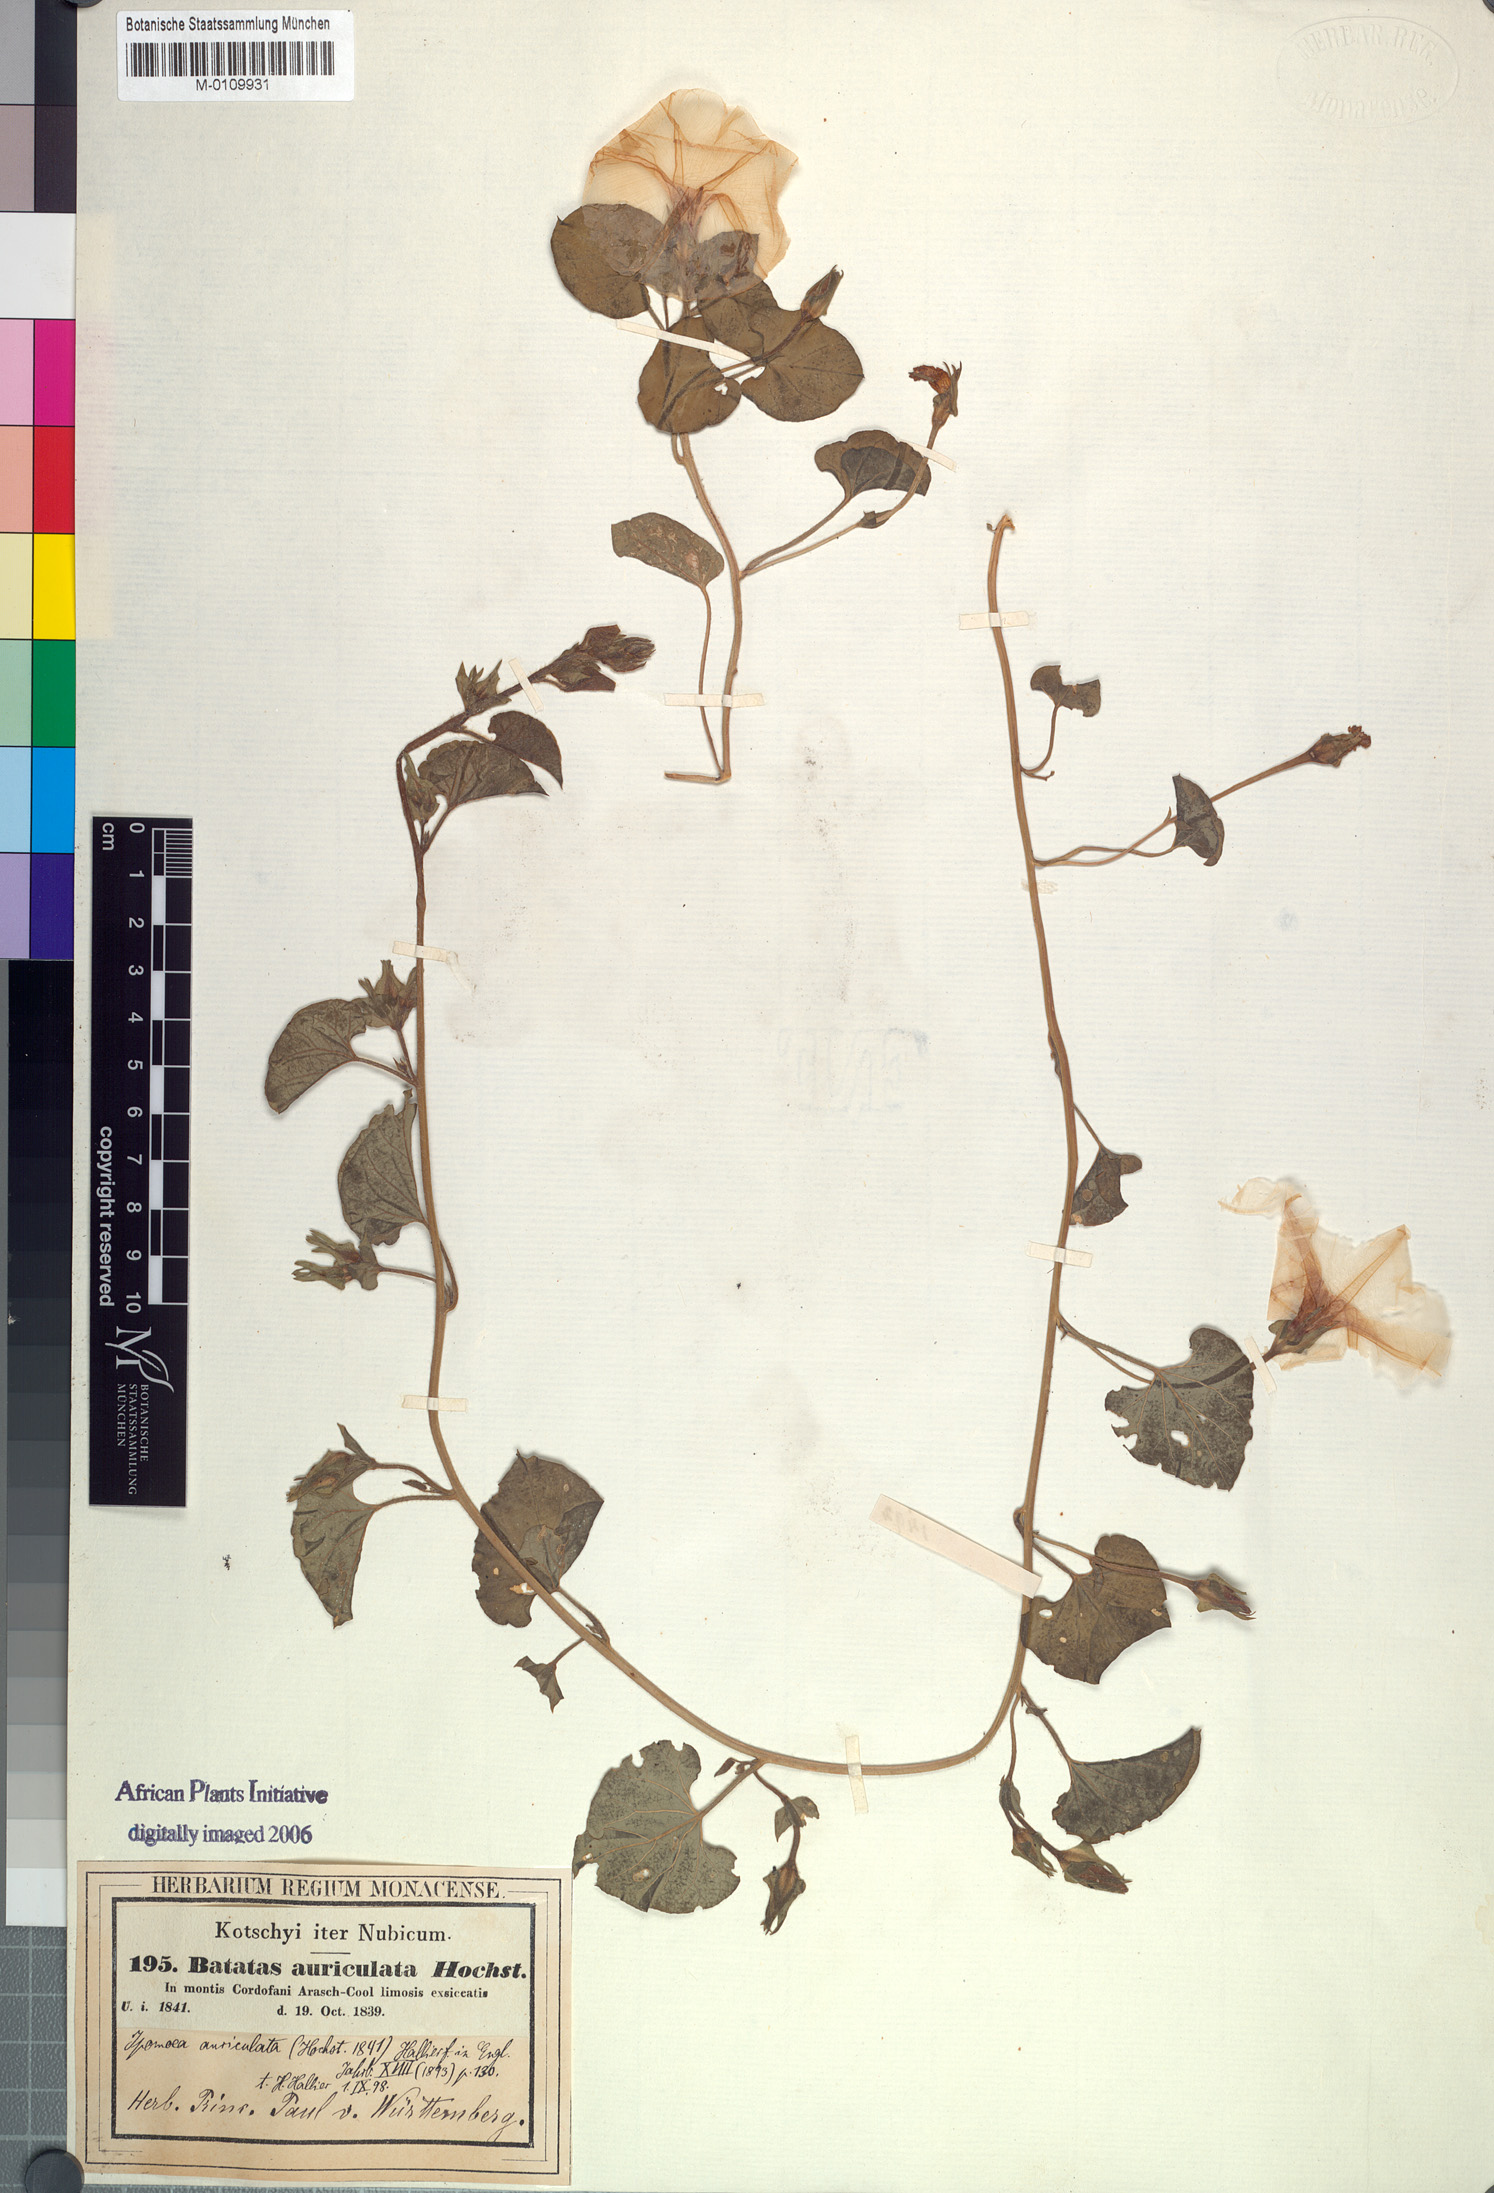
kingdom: Plantae
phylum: Tracheophyta
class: Magnoliopsida
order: Solanales
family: Convolvulaceae
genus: Ipomoea
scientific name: Ipomoea cordofana
